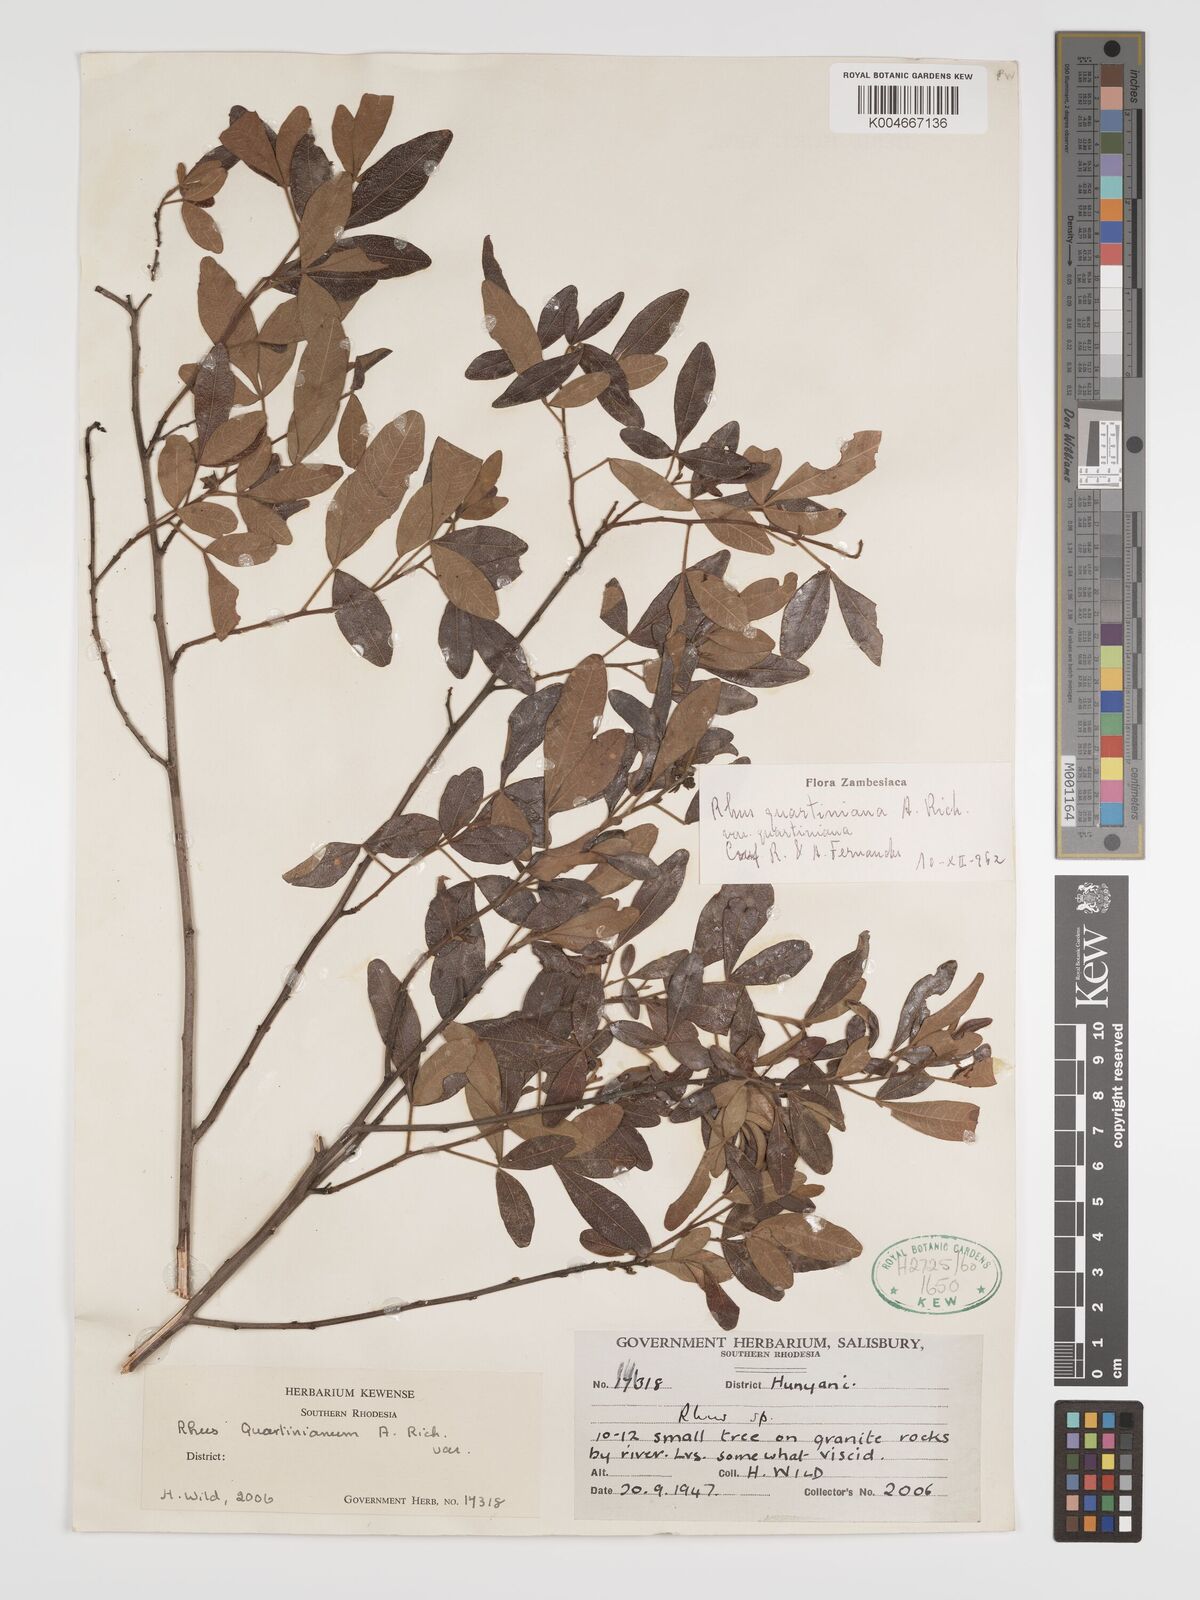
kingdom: Plantae
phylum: Tracheophyta
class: Magnoliopsida
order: Sapindales
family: Anacardiaceae
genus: Searsia
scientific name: Searsia quartiniana
